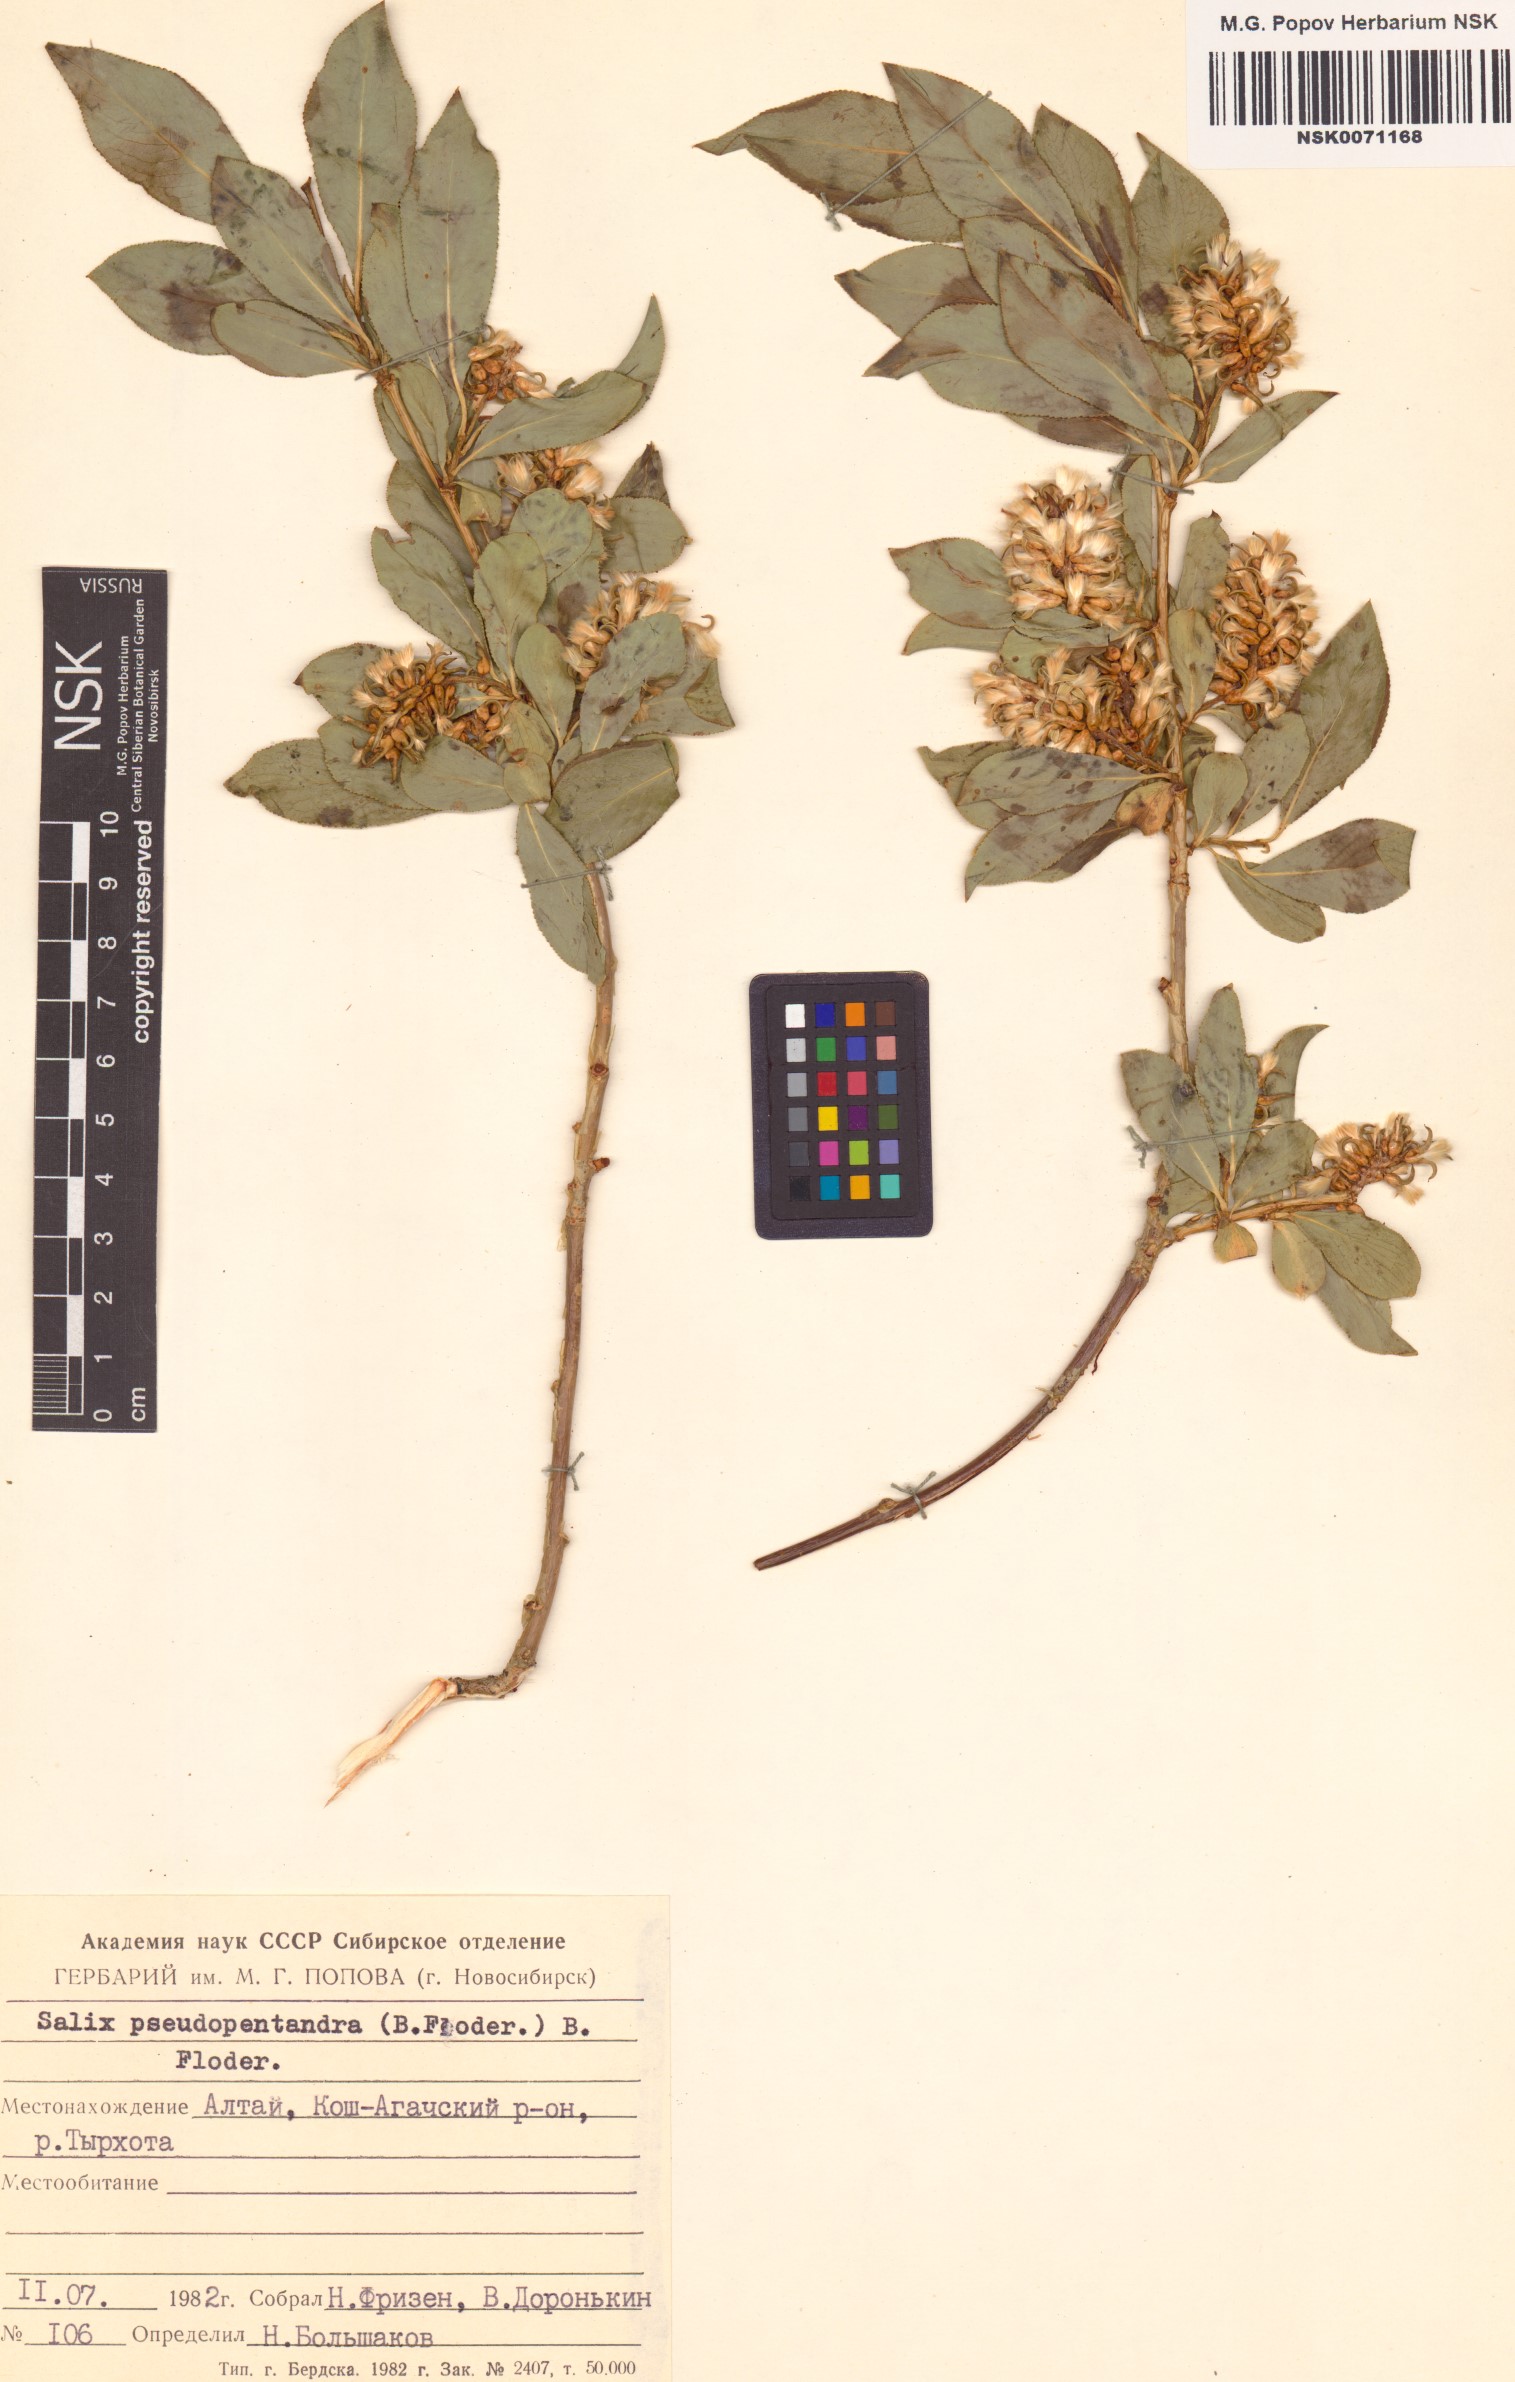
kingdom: Plantae
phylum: Tracheophyta
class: Magnoliopsida
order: Malpighiales
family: Salicaceae
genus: Salix
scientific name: Salix pseudopentandra
